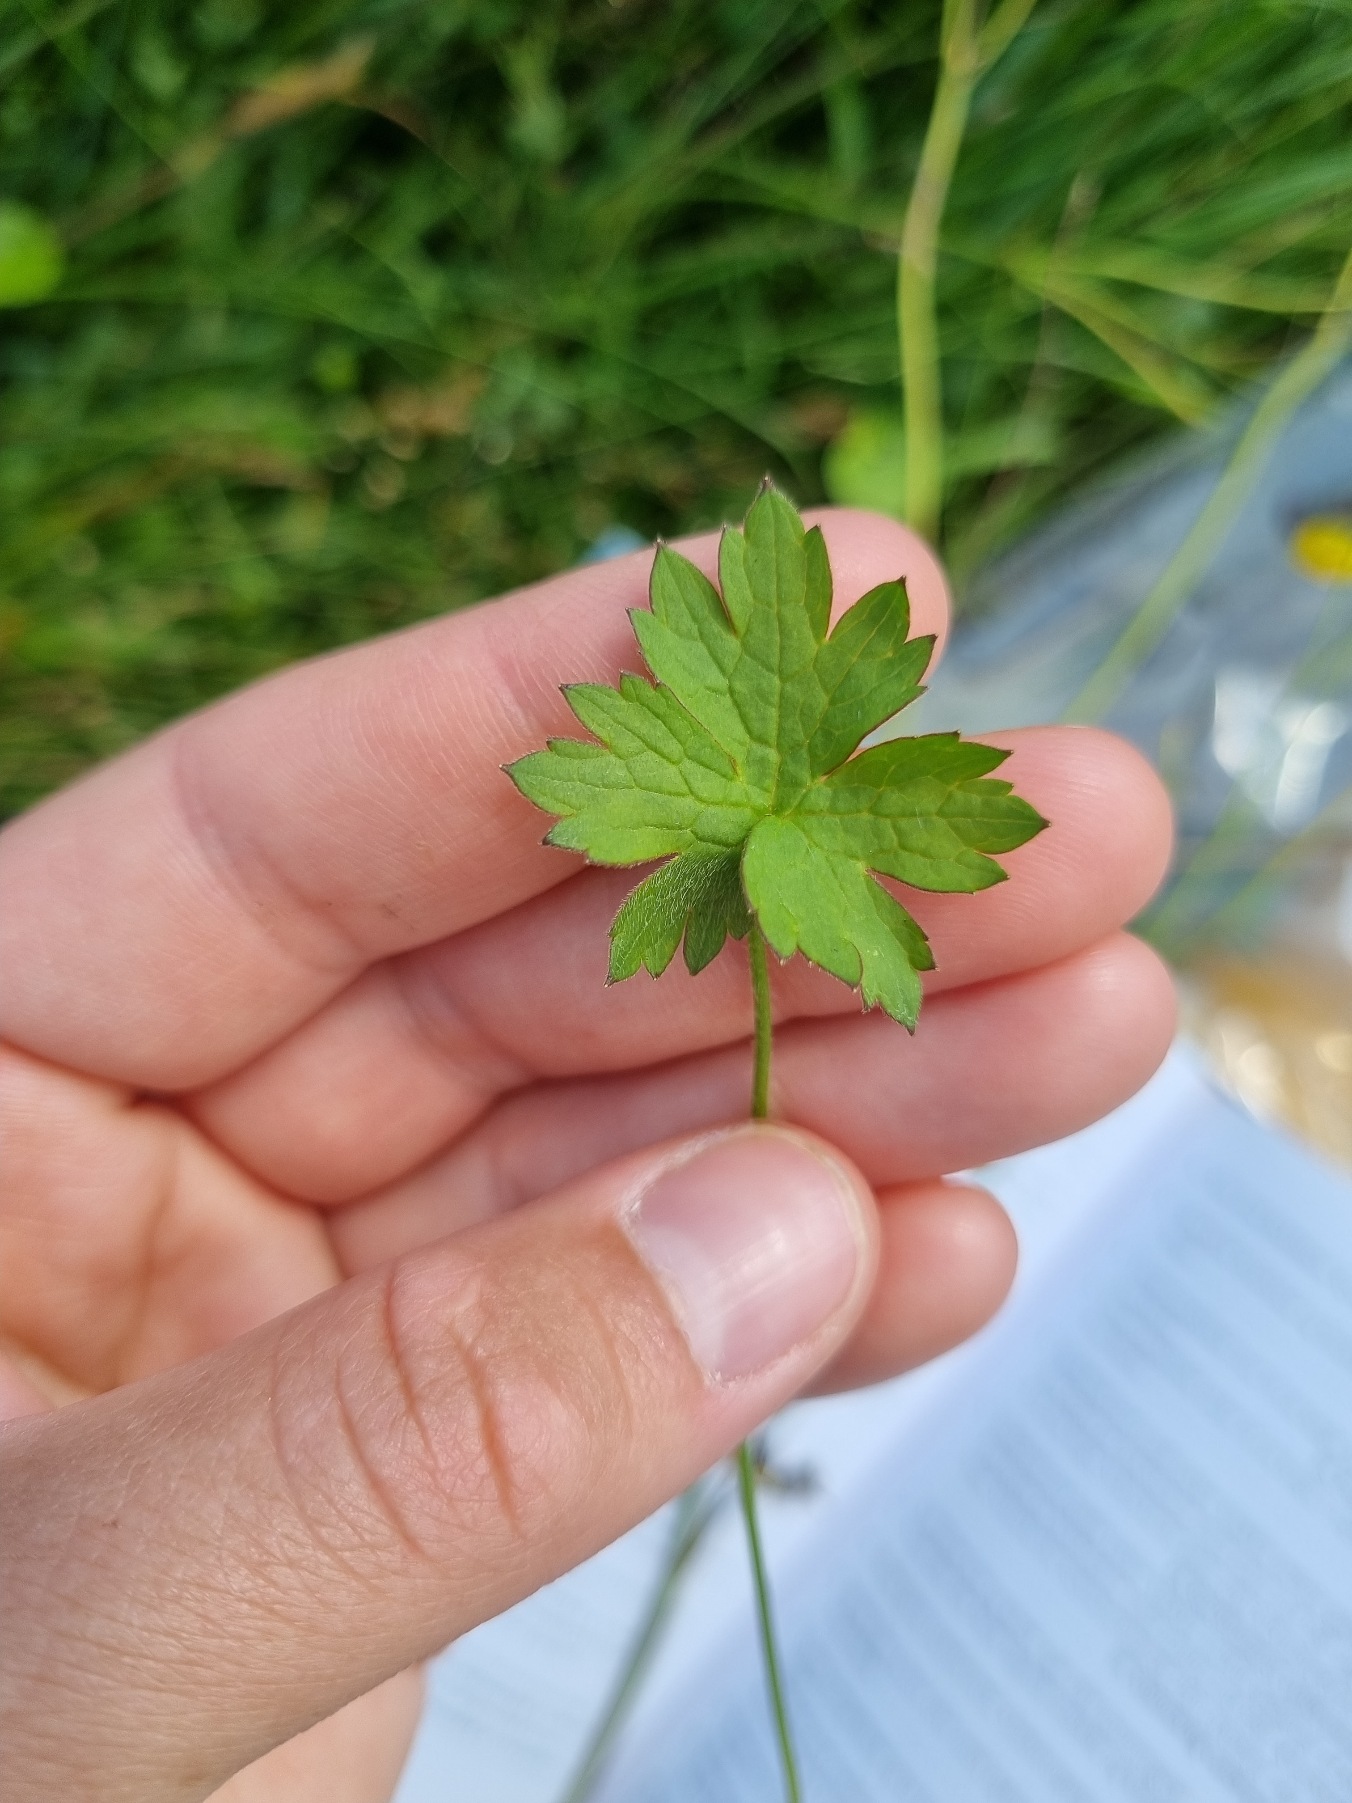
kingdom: Plantae
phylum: Tracheophyta
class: Magnoliopsida
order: Ranunculales
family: Ranunculaceae
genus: Ranunculus
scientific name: Ranunculus acris
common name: Bidende ranunkel
